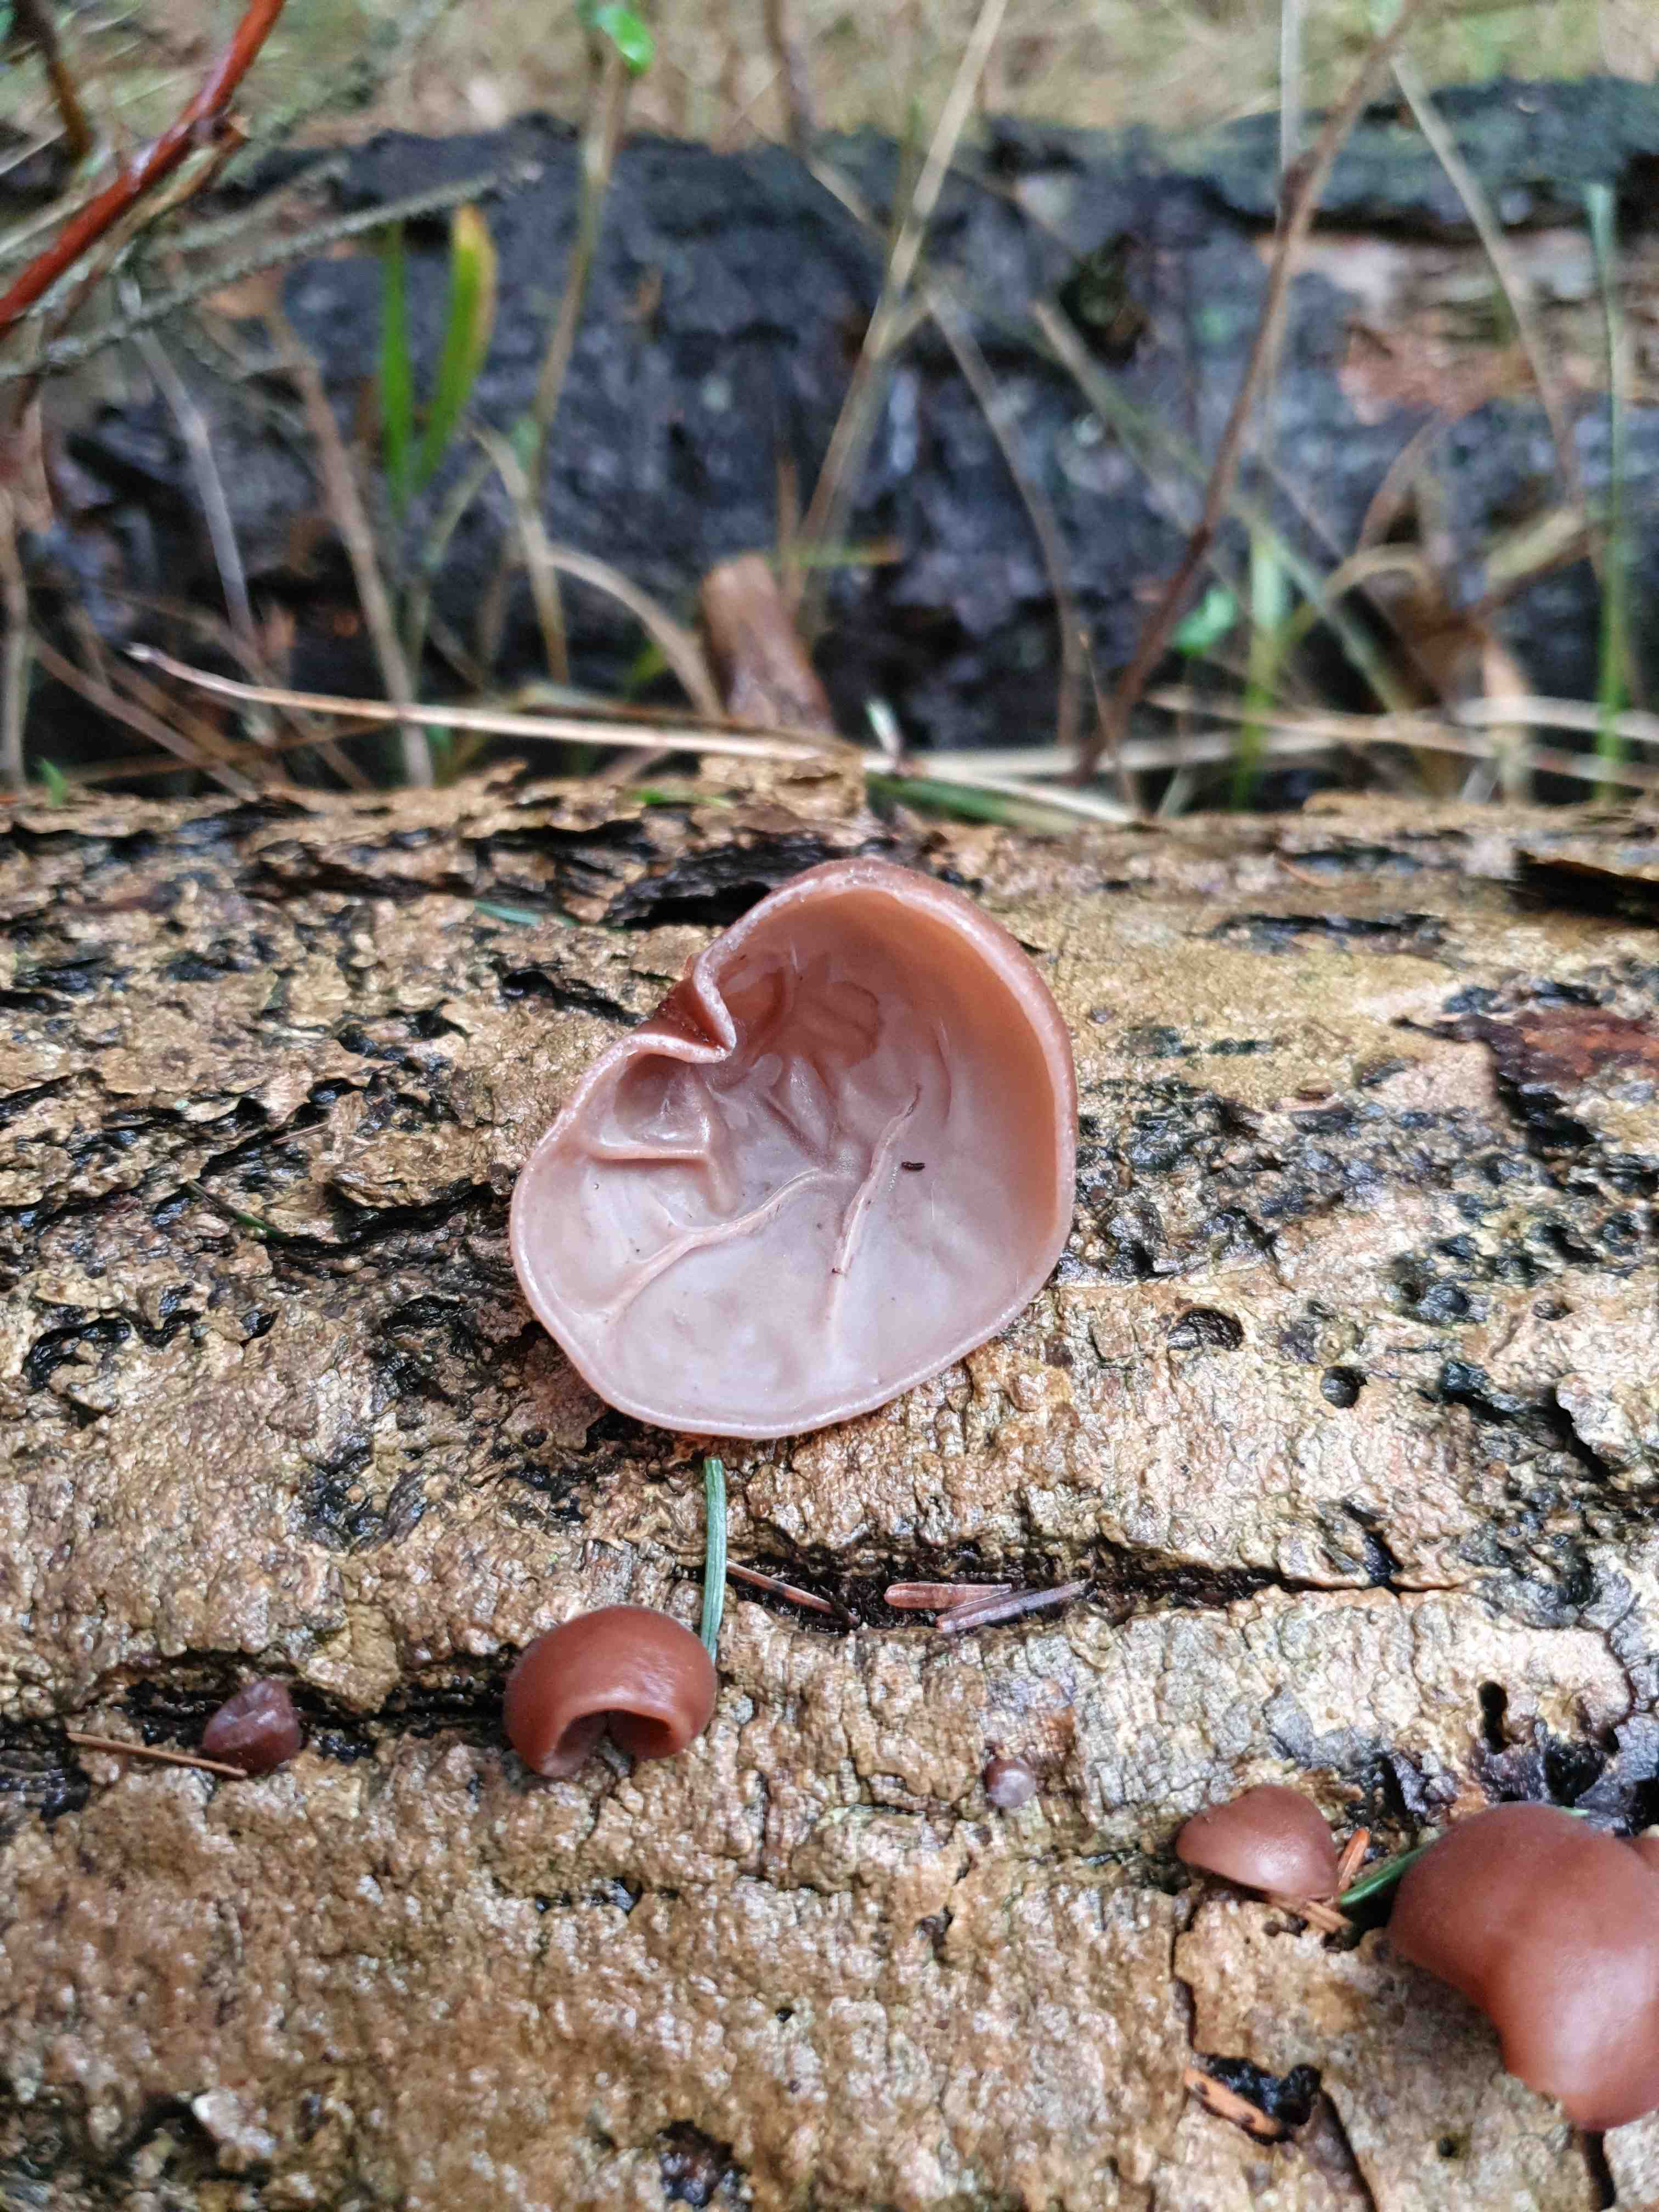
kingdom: Fungi
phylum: Basidiomycota
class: Agaricomycetes
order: Auriculariales
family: Auriculariaceae
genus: Auricularia
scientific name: Auricularia auricula-judae
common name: almindelig judasøre
